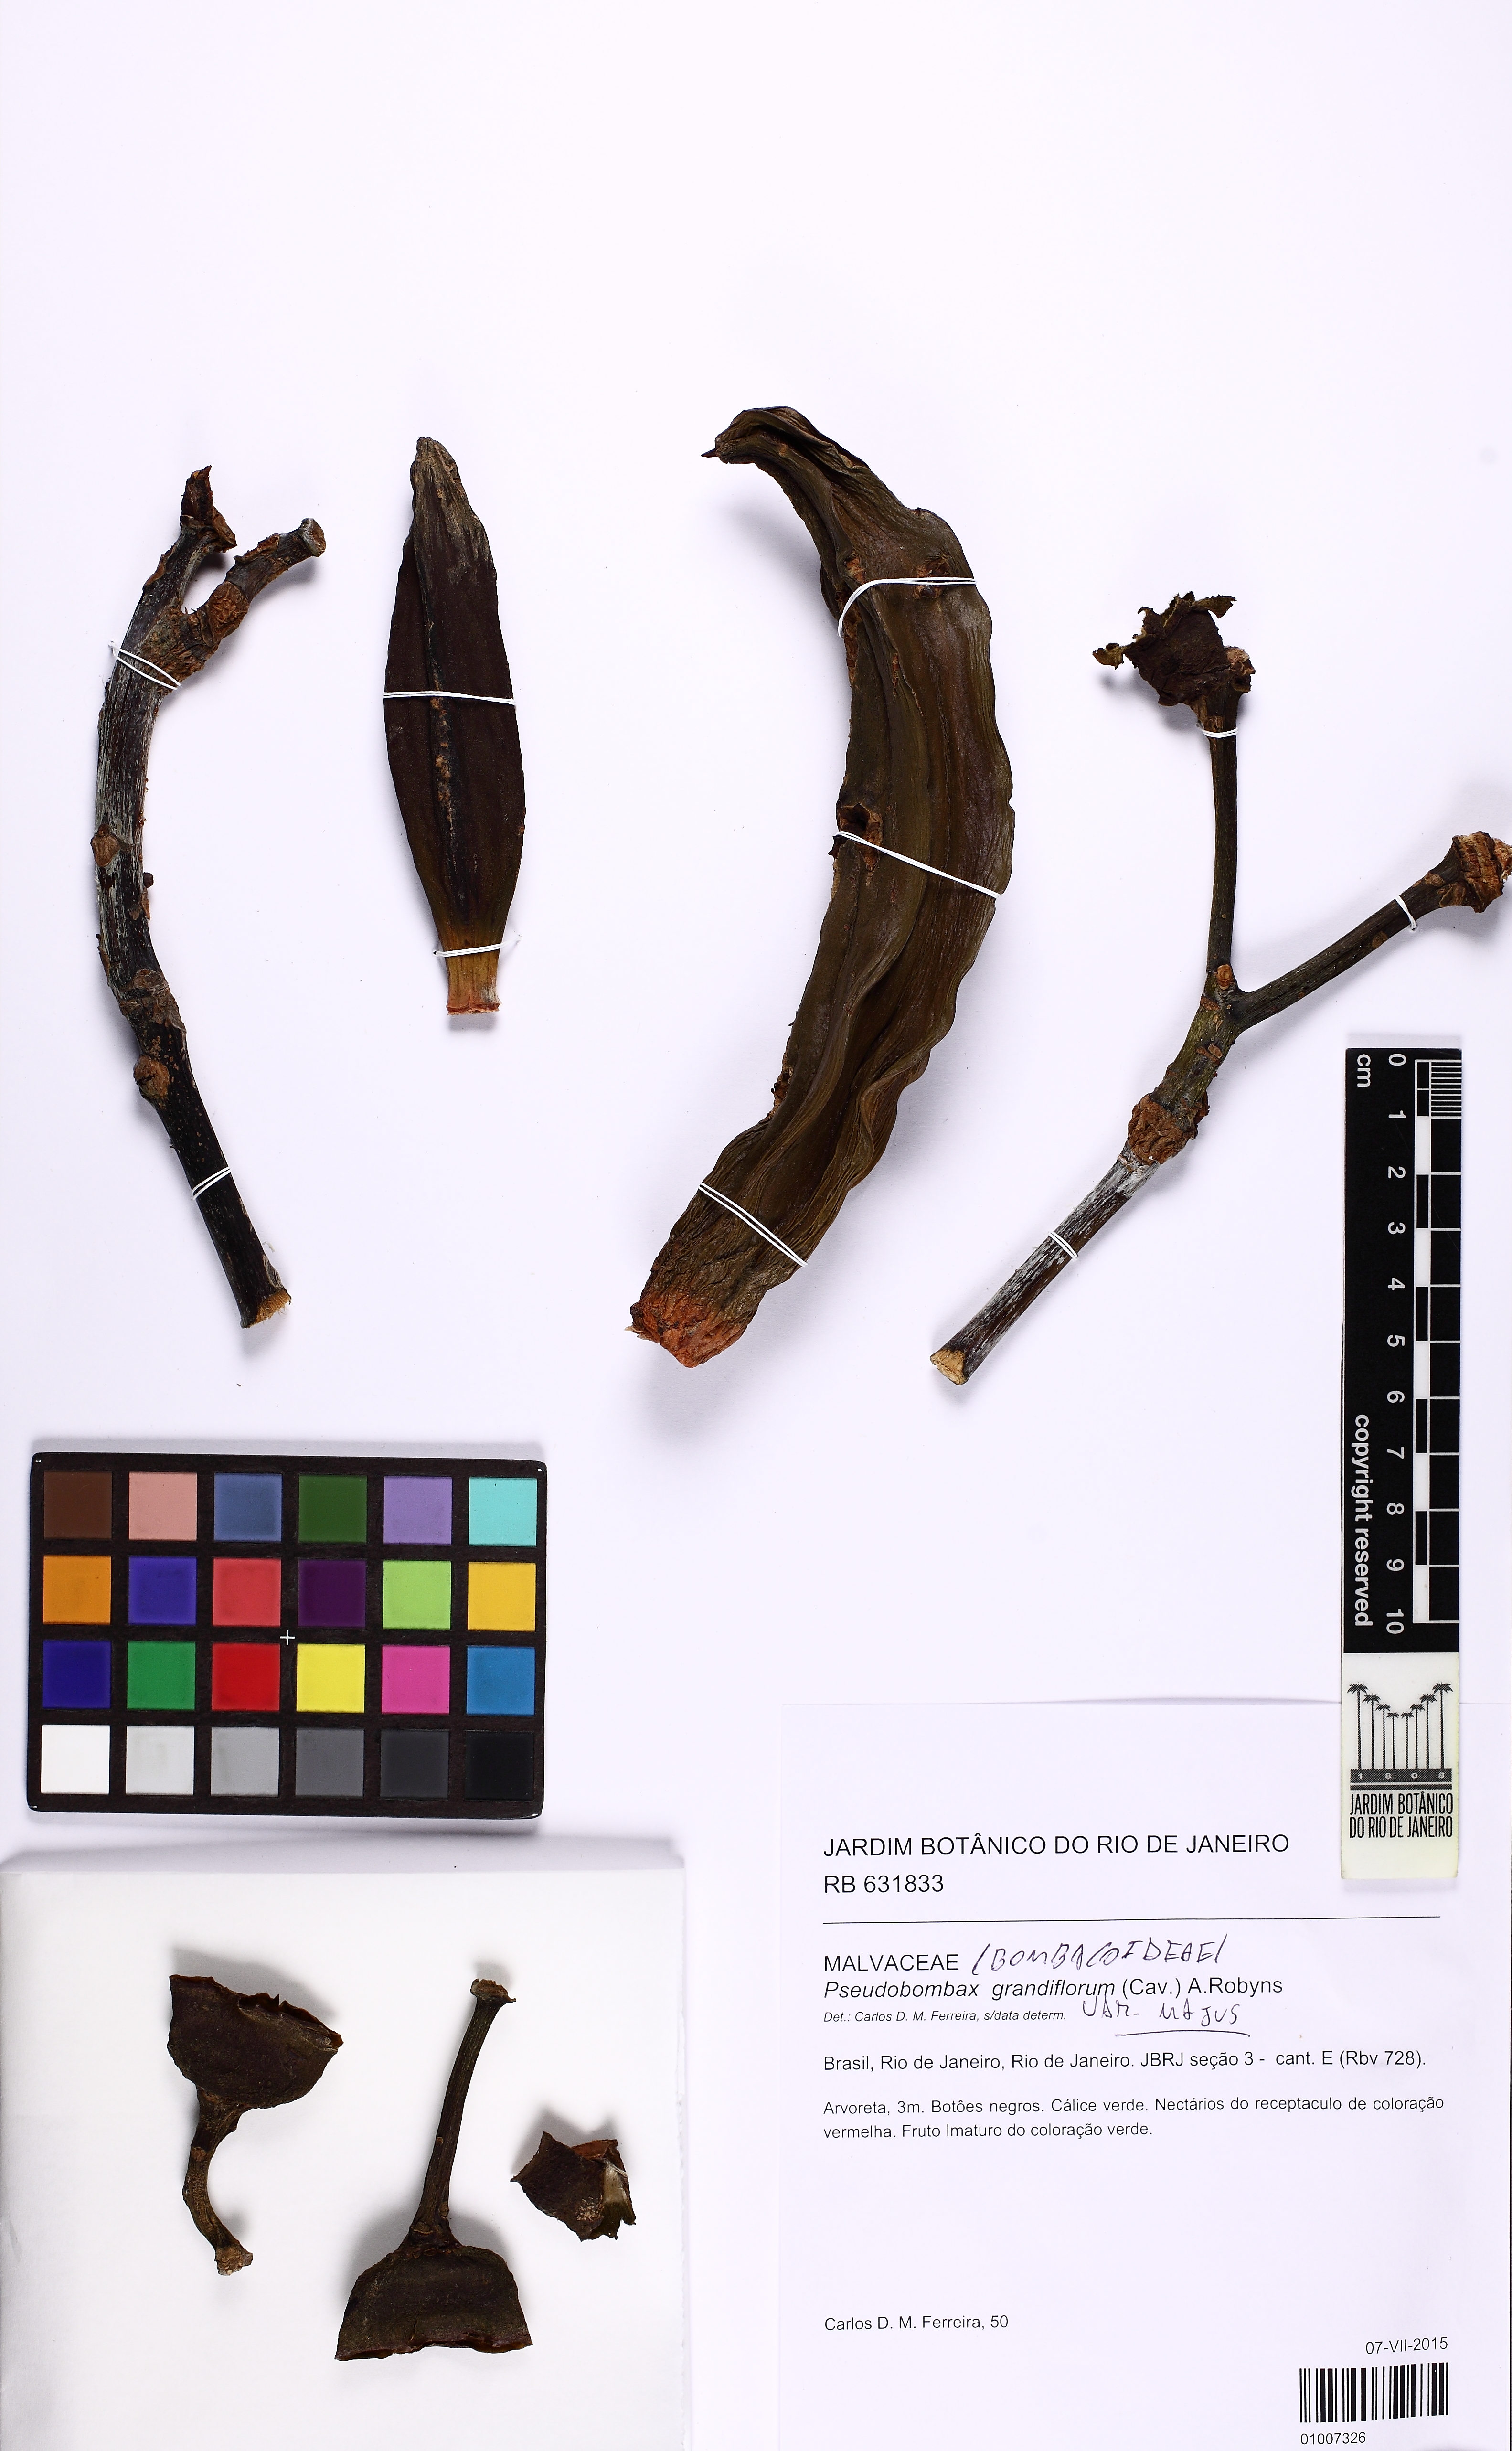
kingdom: Plantae
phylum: Tracheophyta
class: Magnoliopsida
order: Malvales
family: Malvaceae
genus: Pseudobombax
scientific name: Pseudobombax majus
